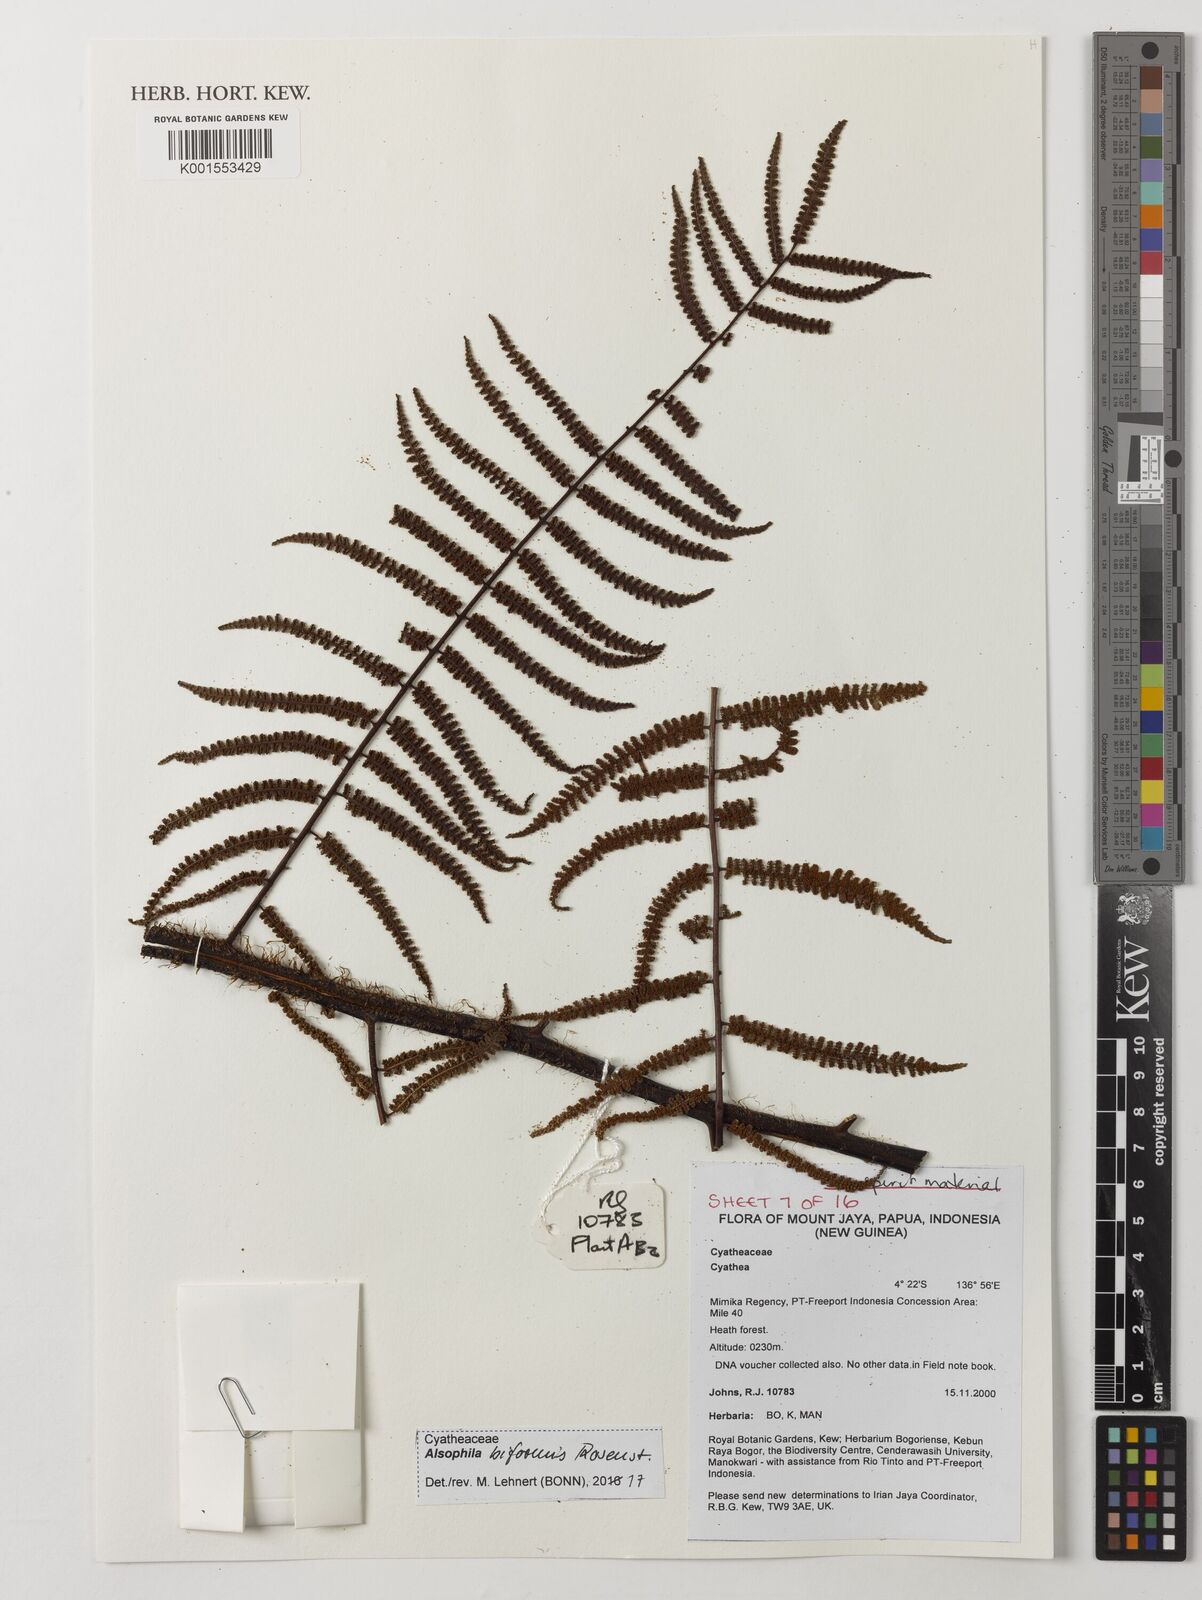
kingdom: Plantae
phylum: Tracheophyta
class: Polypodiopsida
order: Cyatheales
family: Cyatheaceae
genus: Gymnosphaera
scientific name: Gymnosphaera biformis
